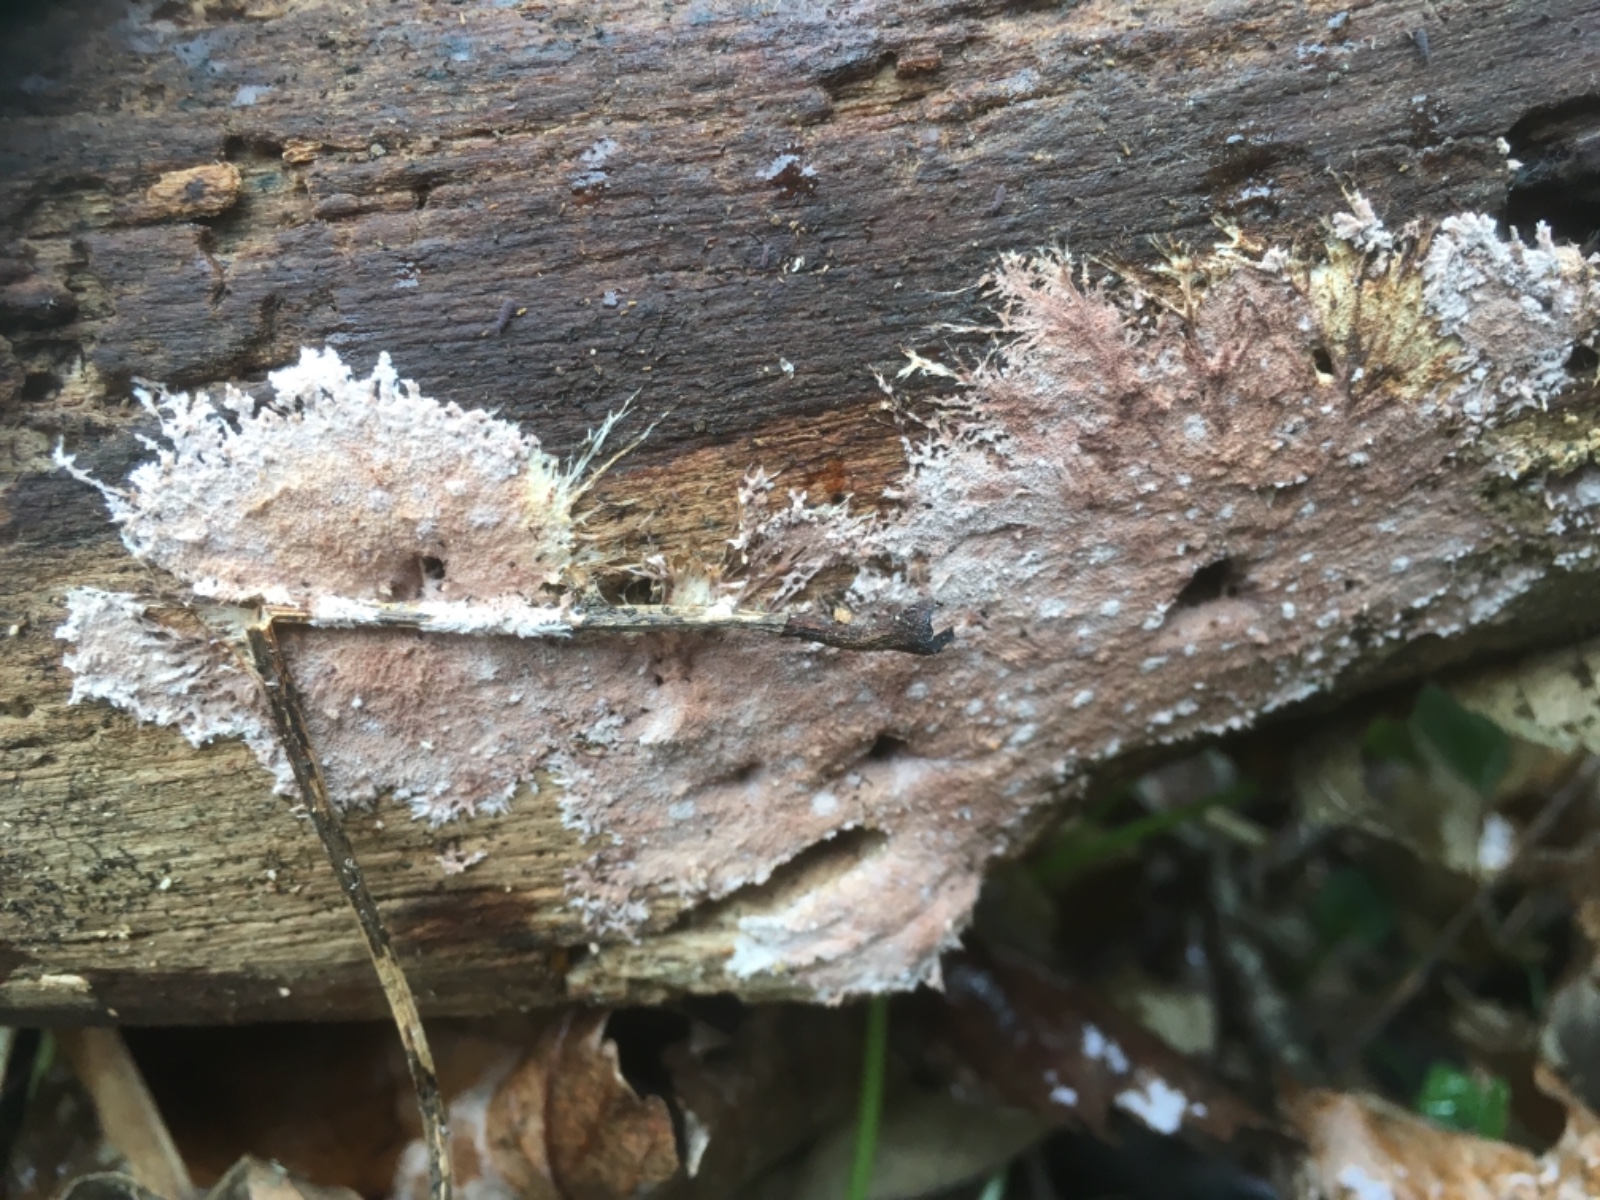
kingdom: Fungi
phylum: Basidiomycota
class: Agaricomycetes
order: Polyporales
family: Steccherinaceae
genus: Steccherinum
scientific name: Steccherinum fimbriatum
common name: trådet skønpig
